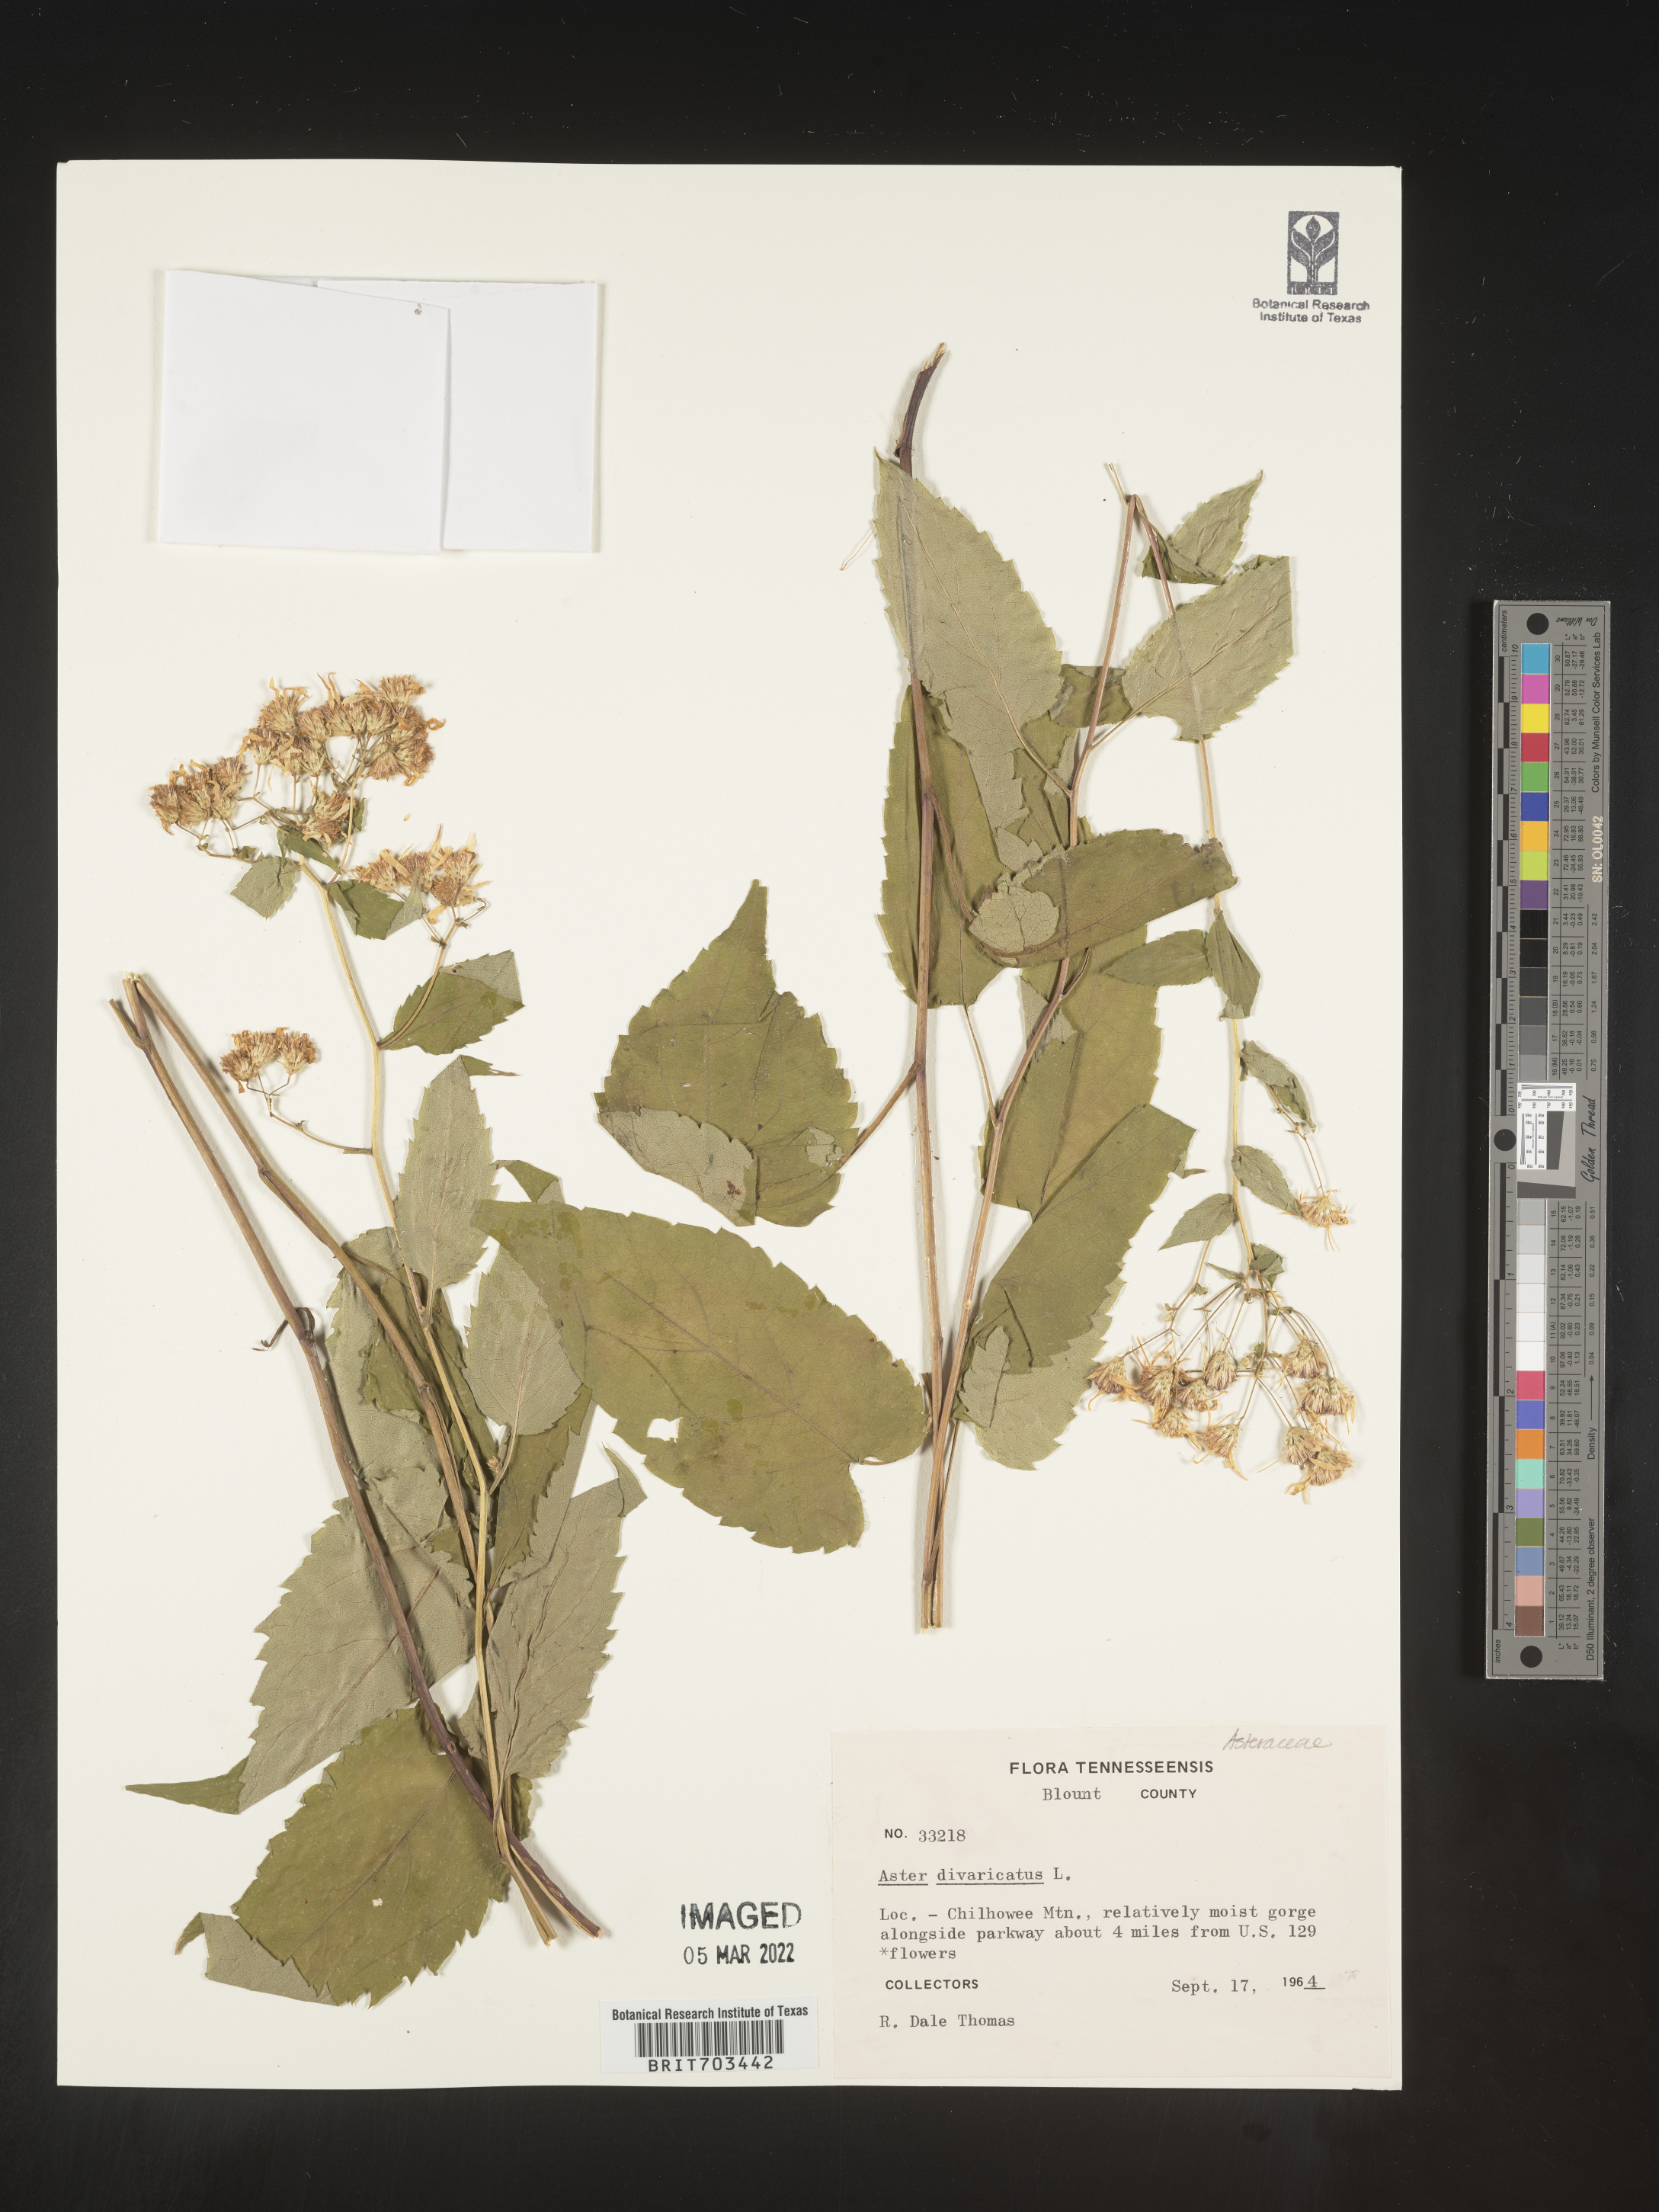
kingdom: Plantae
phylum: Tracheophyta
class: Magnoliopsida
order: Asterales
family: Asteraceae
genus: Eurybia
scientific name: Eurybia divaricata
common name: White wood aster
